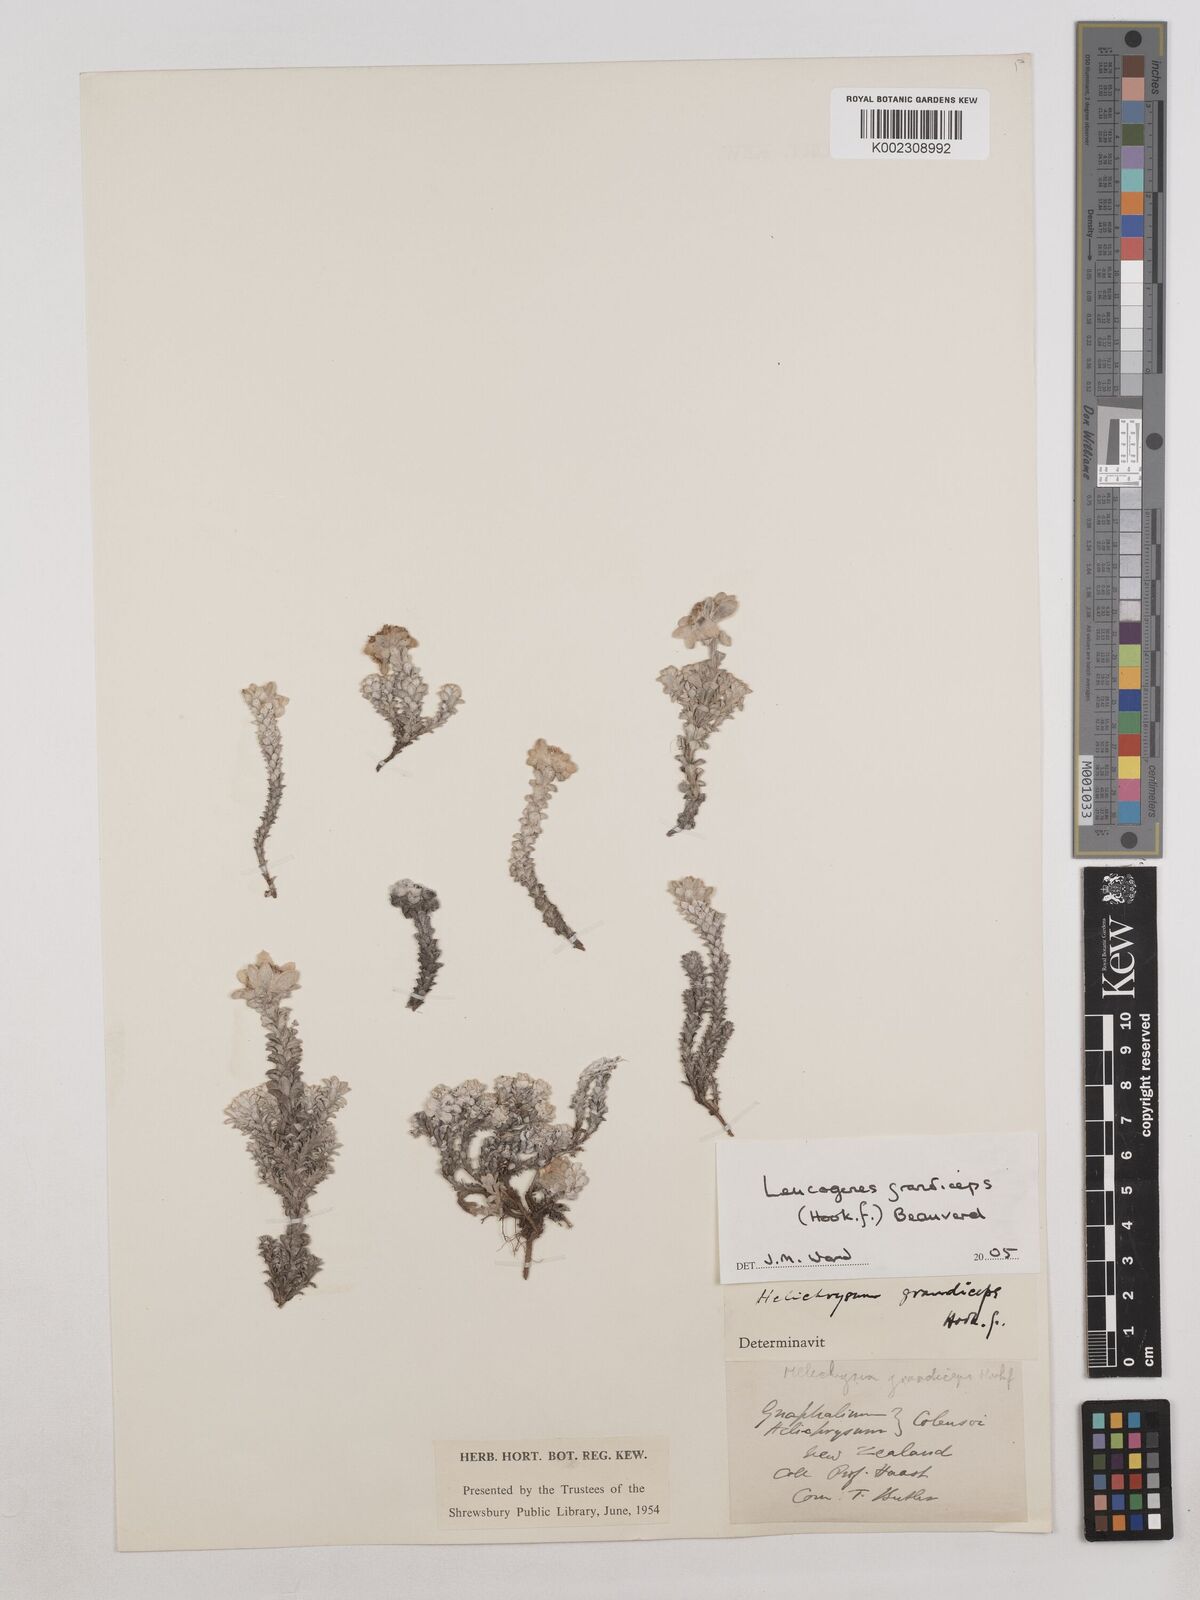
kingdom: Plantae
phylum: Tracheophyta
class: Magnoliopsida
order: Asterales
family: Asteraceae
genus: Leucogenes
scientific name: Leucogenes grandiceps
